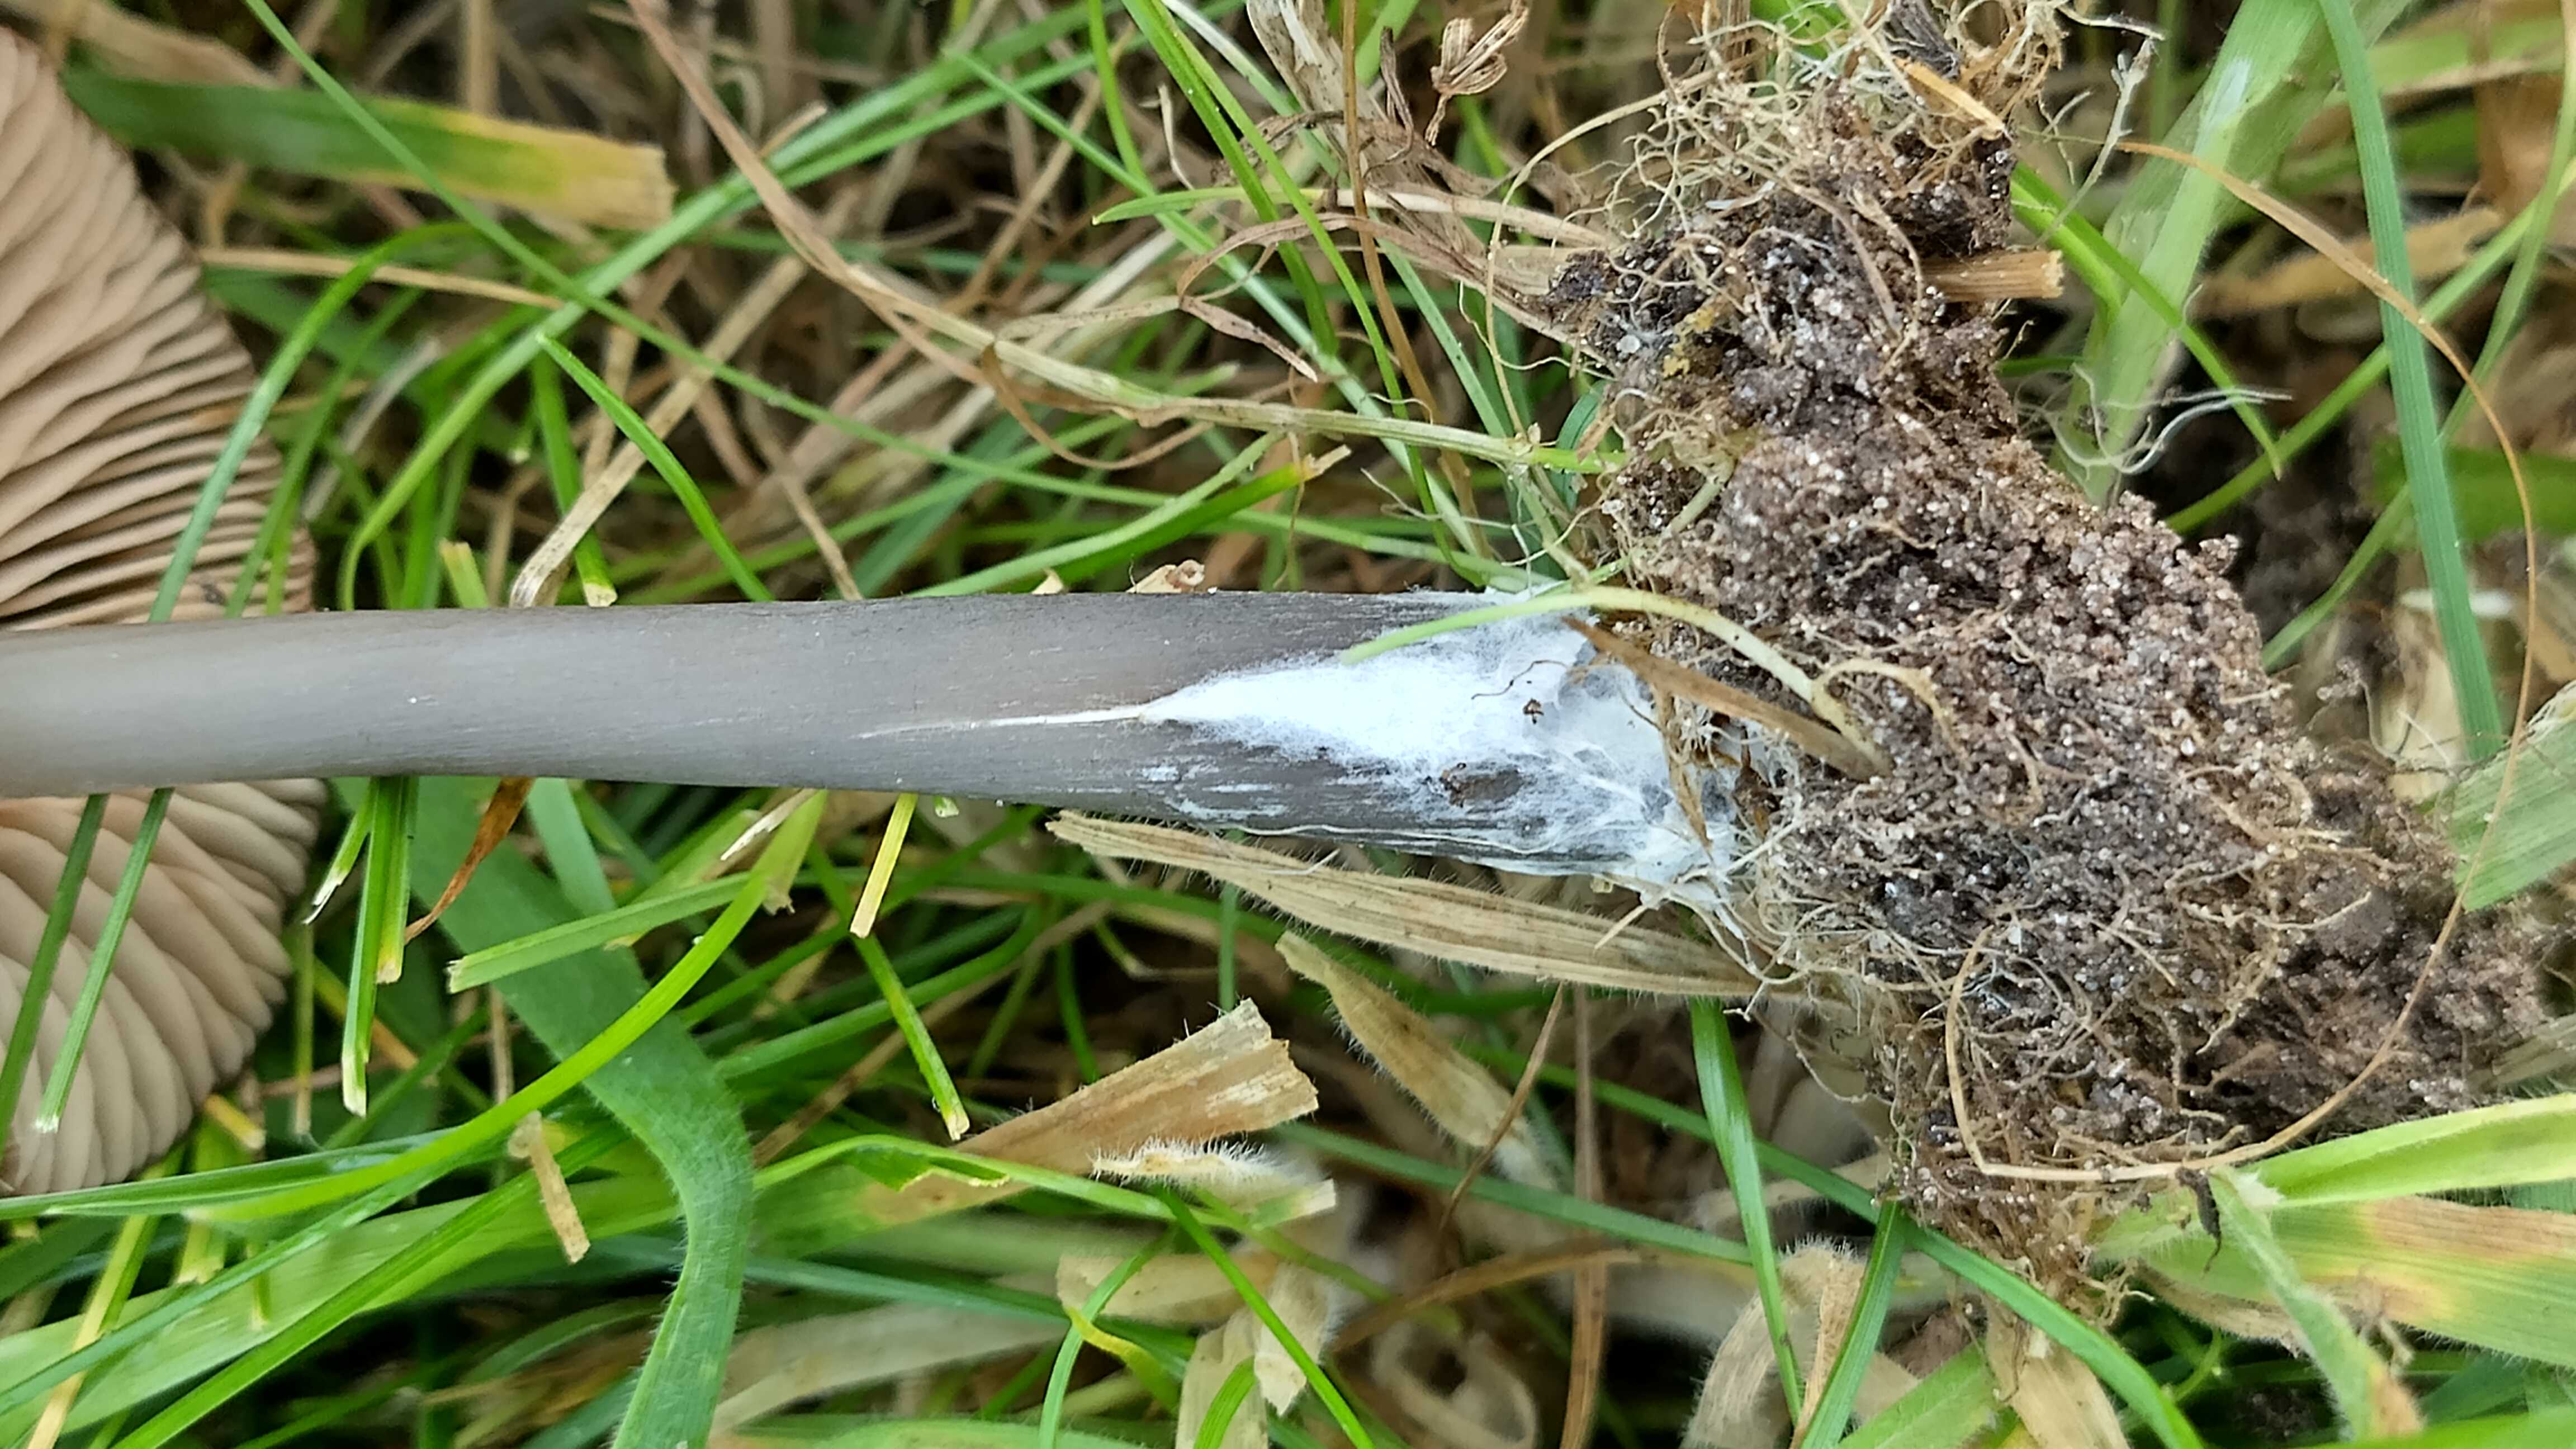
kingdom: Fungi
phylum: Basidiomycota
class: Agaricomycetes
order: Agaricales
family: Entolomataceae
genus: Entoloma
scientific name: Entoloma
